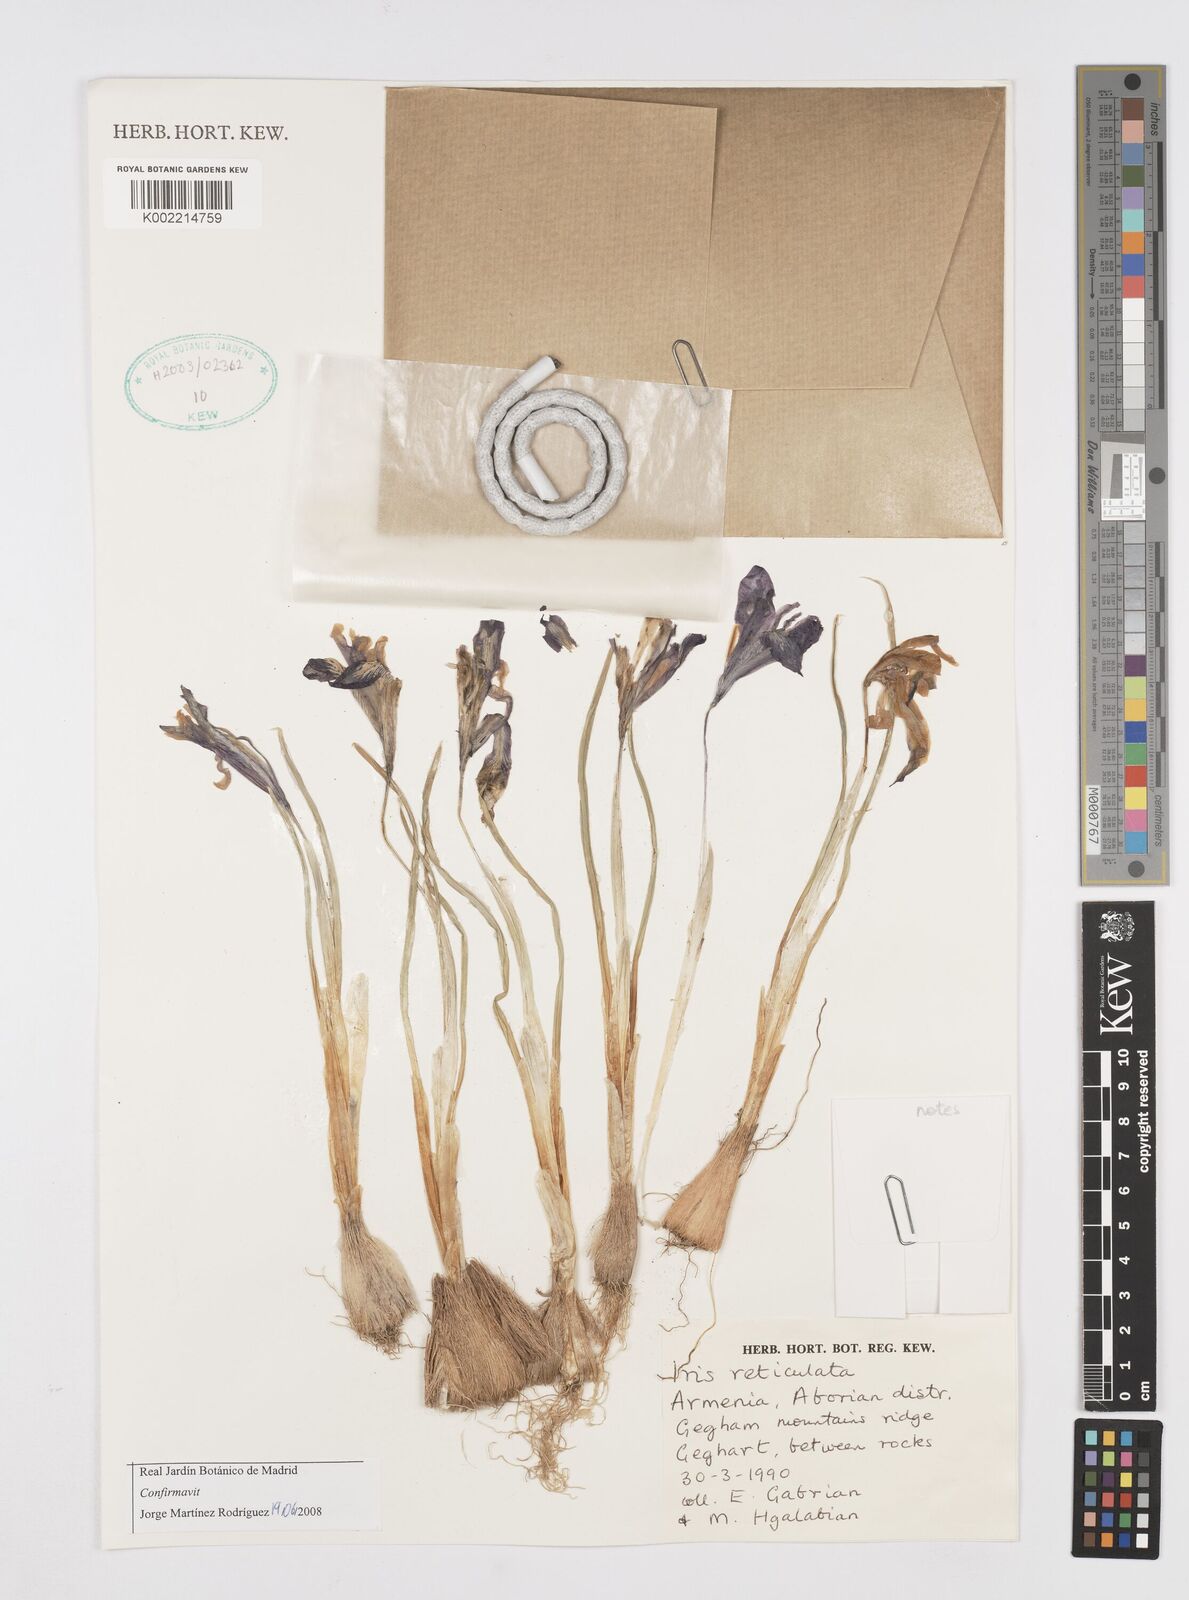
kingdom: Plantae
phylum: Tracheophyta
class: Liliopsida
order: Asparagales
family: Iridaceae
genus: Iris
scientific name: Iris reticulata
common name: Netted iris
